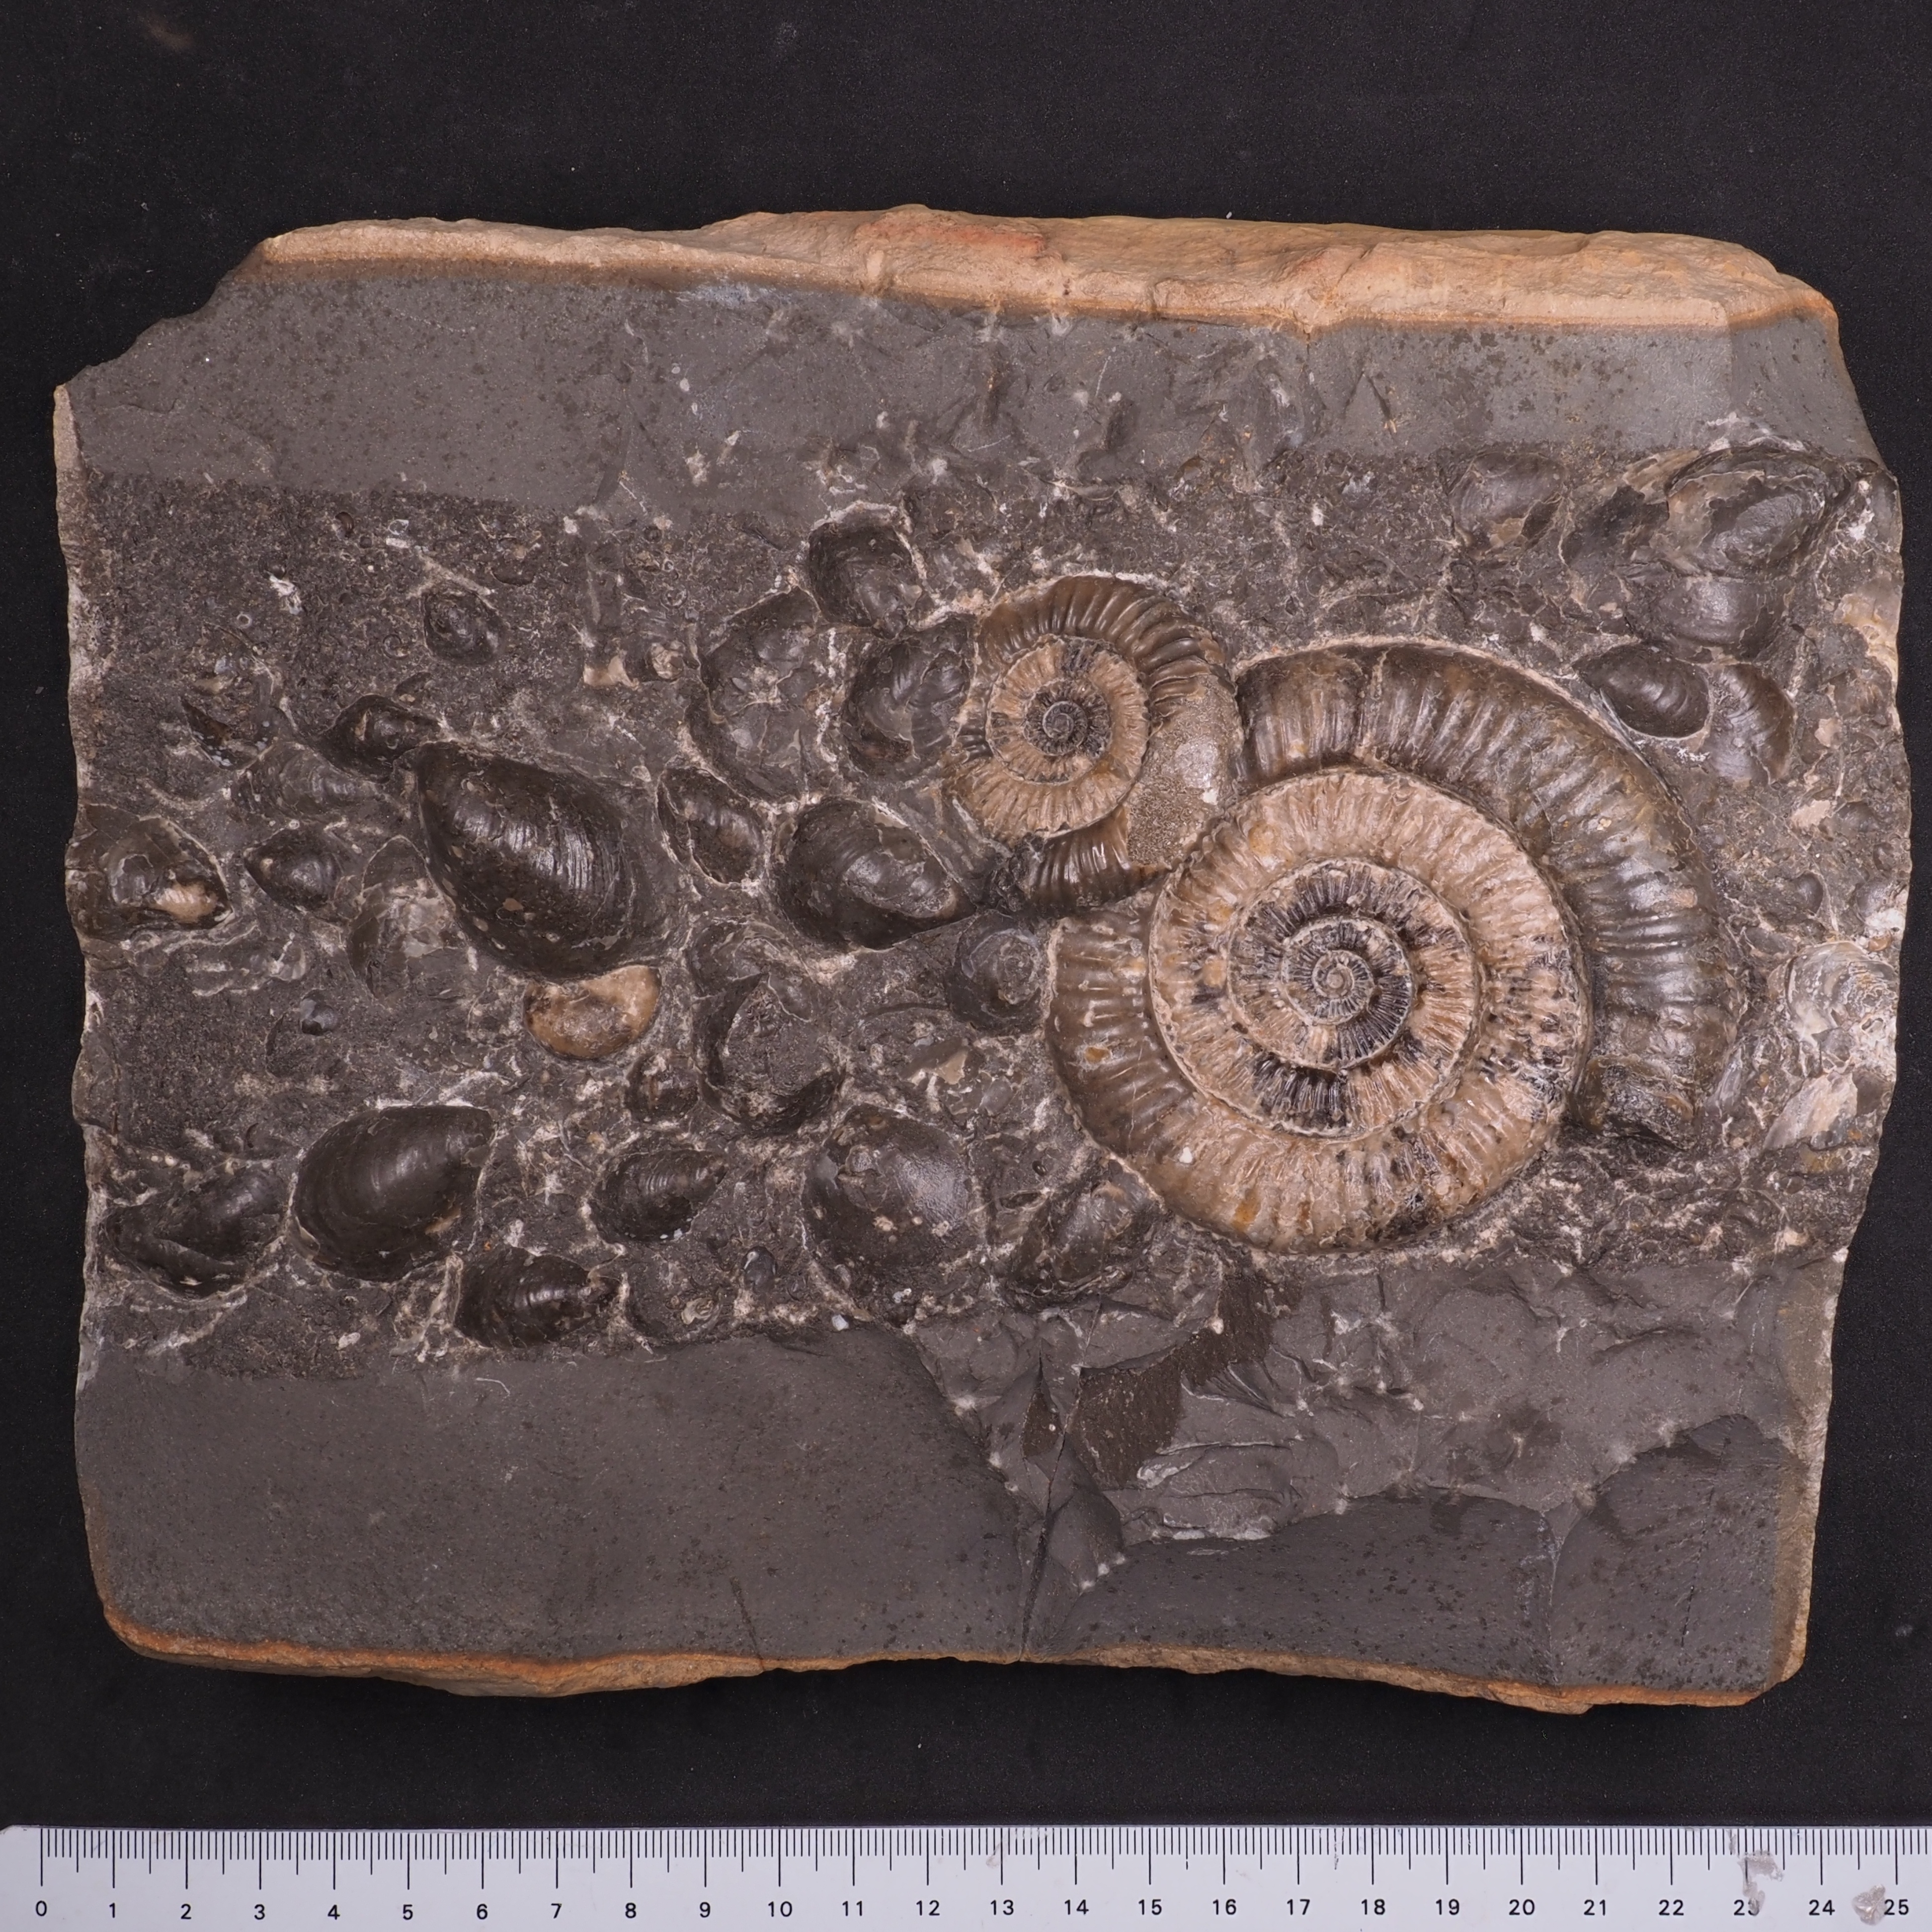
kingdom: Animalia
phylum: Mollusca
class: Cephalopoda
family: Dactylioceratidae
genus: Dactylioceras
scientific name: Dactylioceras commune
